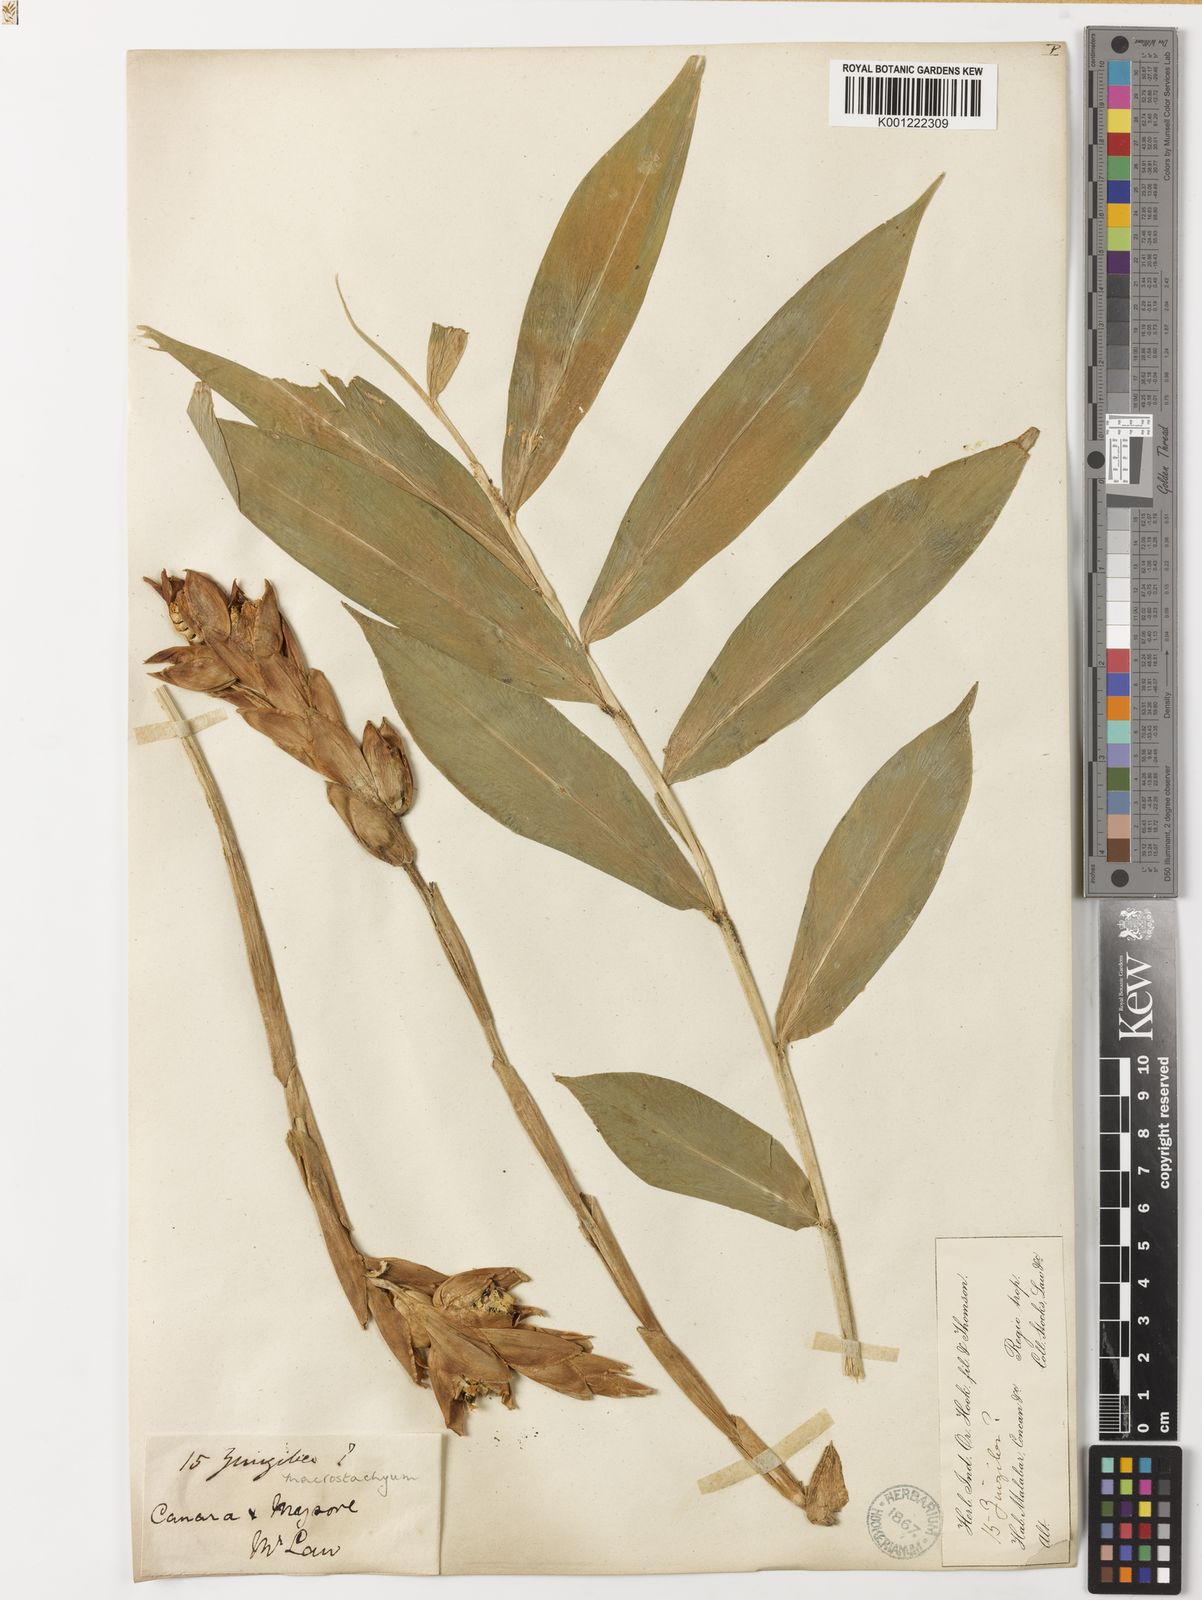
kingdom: Plantae
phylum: Tracheophyta
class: Liliopsida
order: Zingiberales
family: Zingiberaceae
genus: Zingiber
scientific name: Zingiber neesanum
